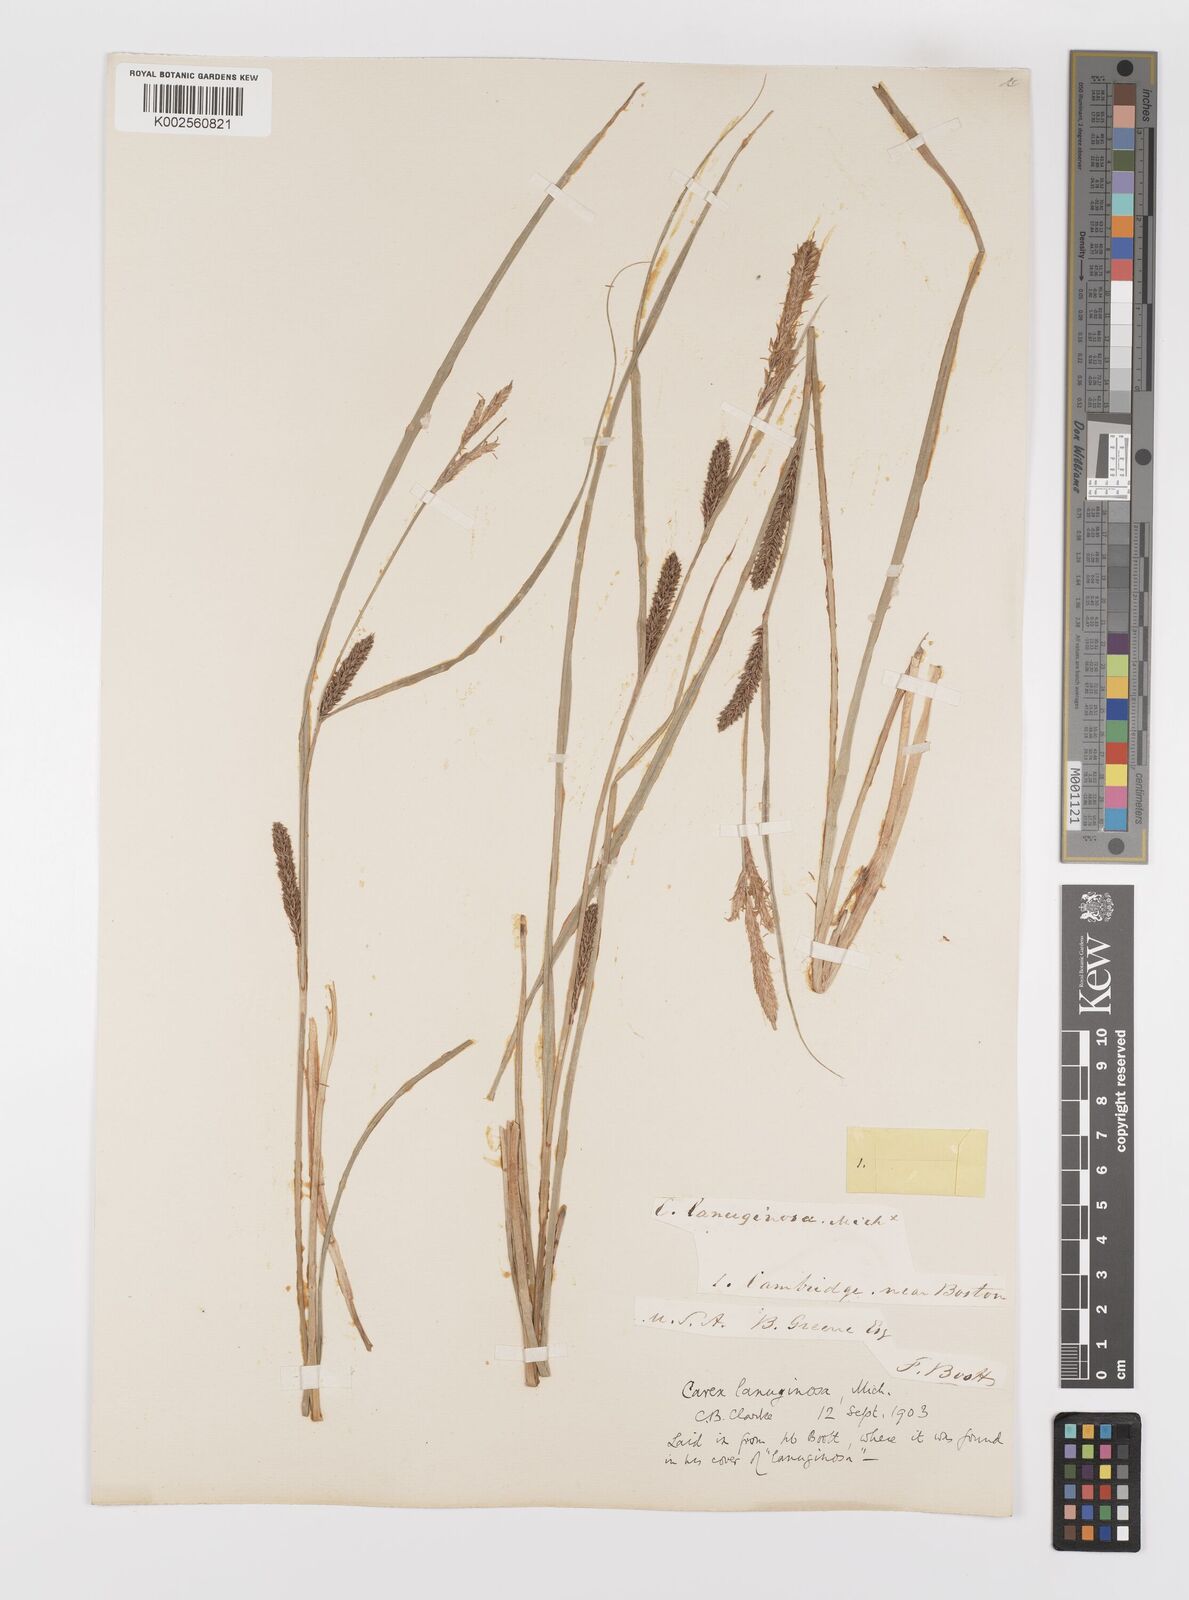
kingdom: Plantae
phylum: Tracheophyta
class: Liliopsida
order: Poales
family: Cyperaceae
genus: Carex
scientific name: Carex lasiocarpa
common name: Slender sedge
